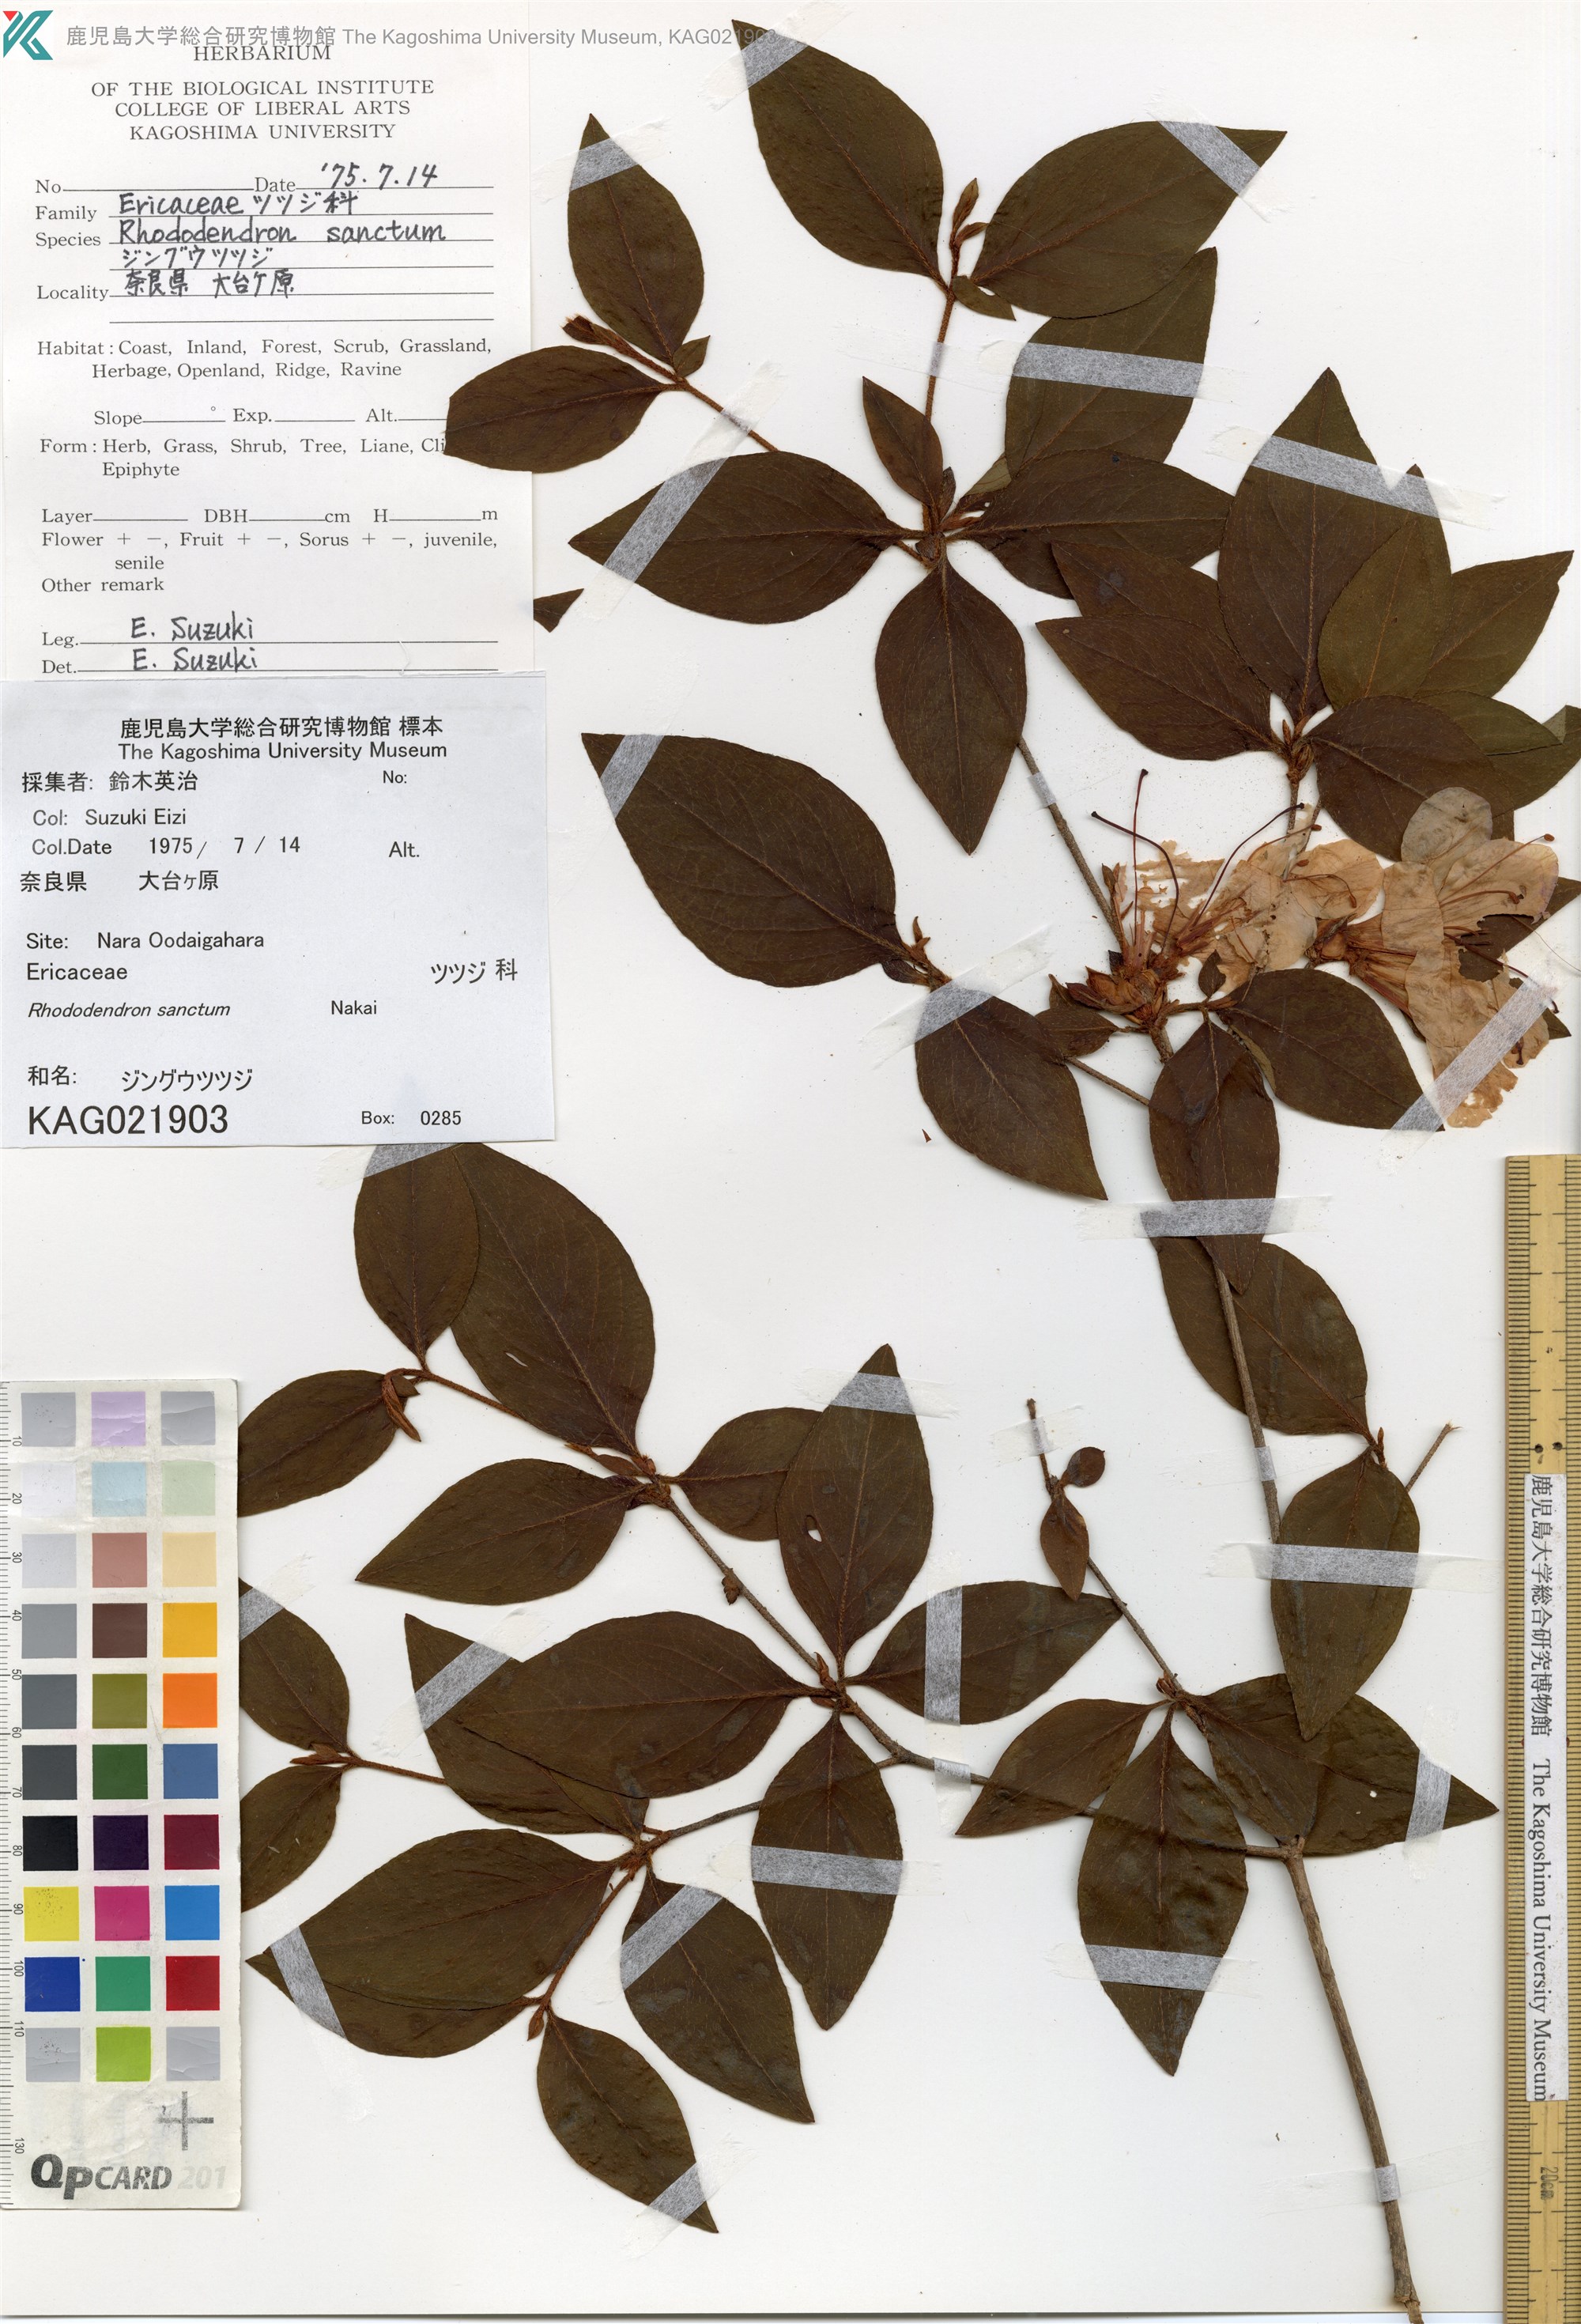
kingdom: Plantae
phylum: Tracheophyta
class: Magnoliopsida
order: Ericales
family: Ericaceae
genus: Rhododendron
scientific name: Rhododendron sanctum
